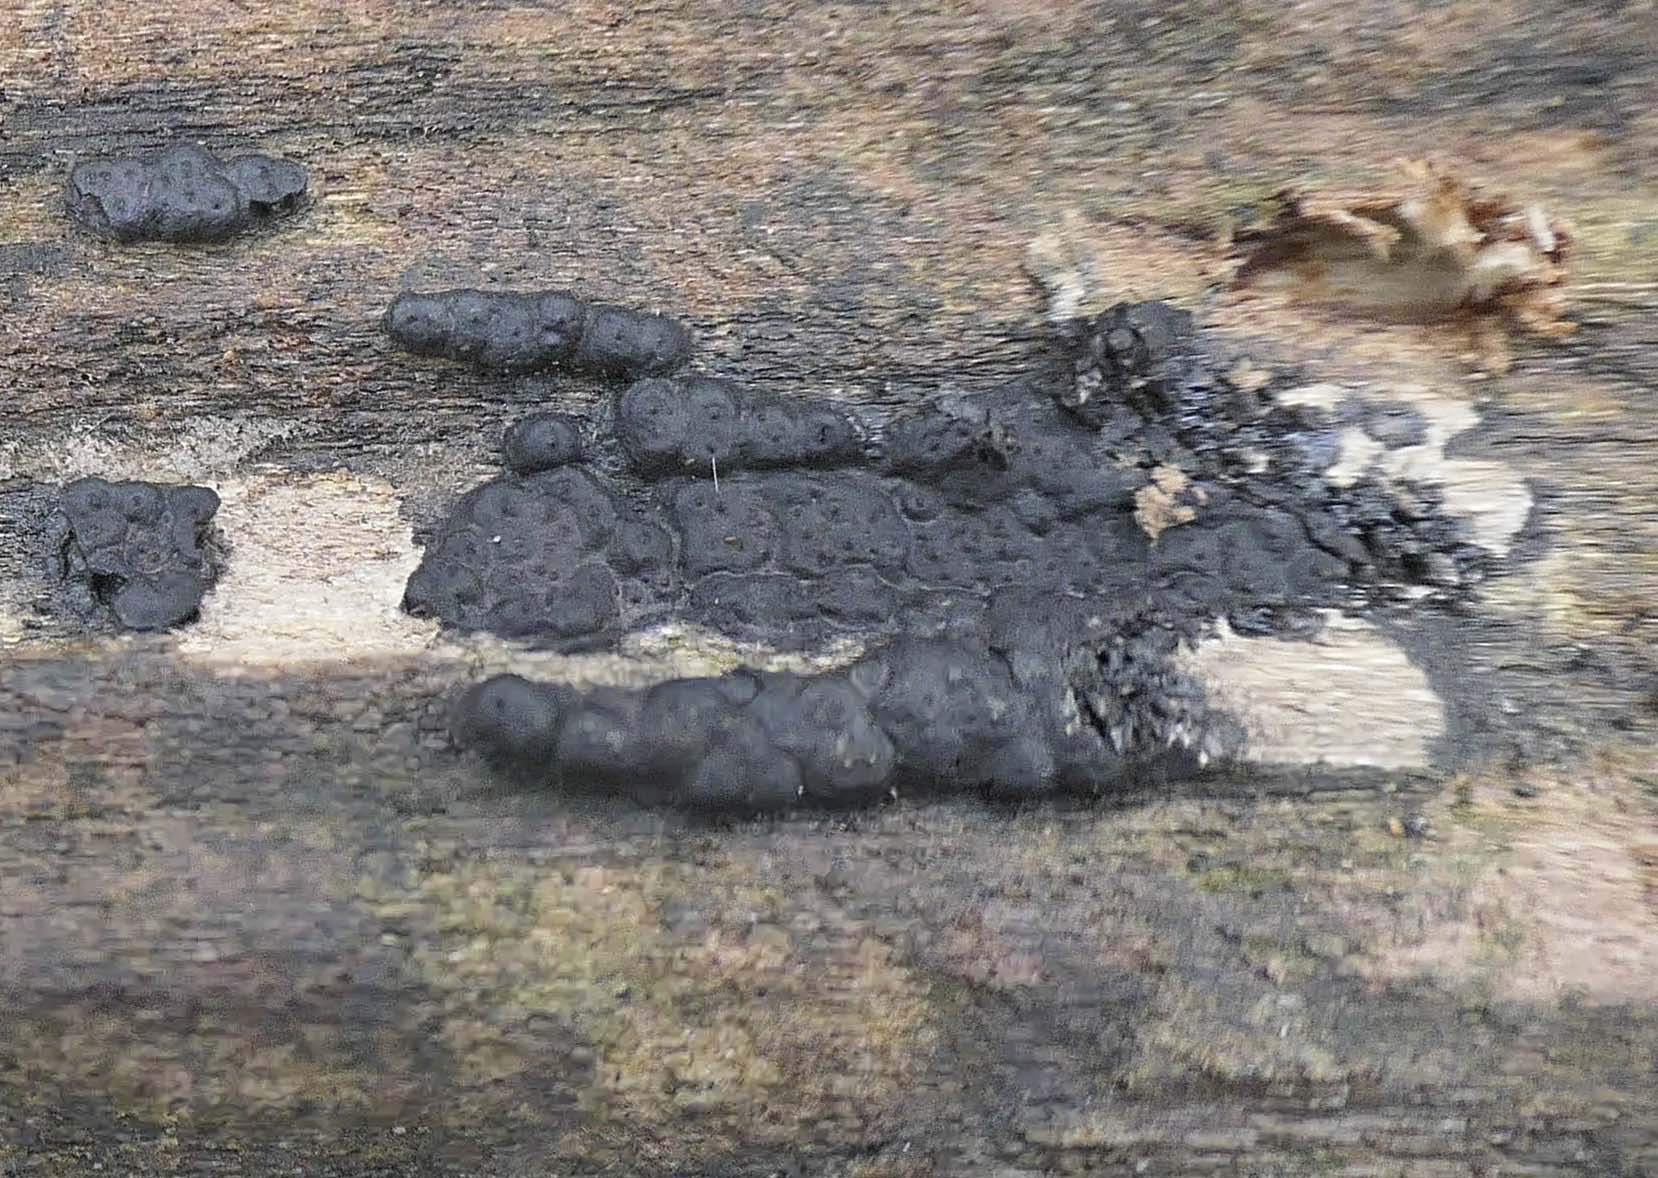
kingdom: Fungi
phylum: Ascomycota
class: Sordariomycetes
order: Xylariales
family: Xylariaceae
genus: Nemania
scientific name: Nemania
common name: kuldyne
